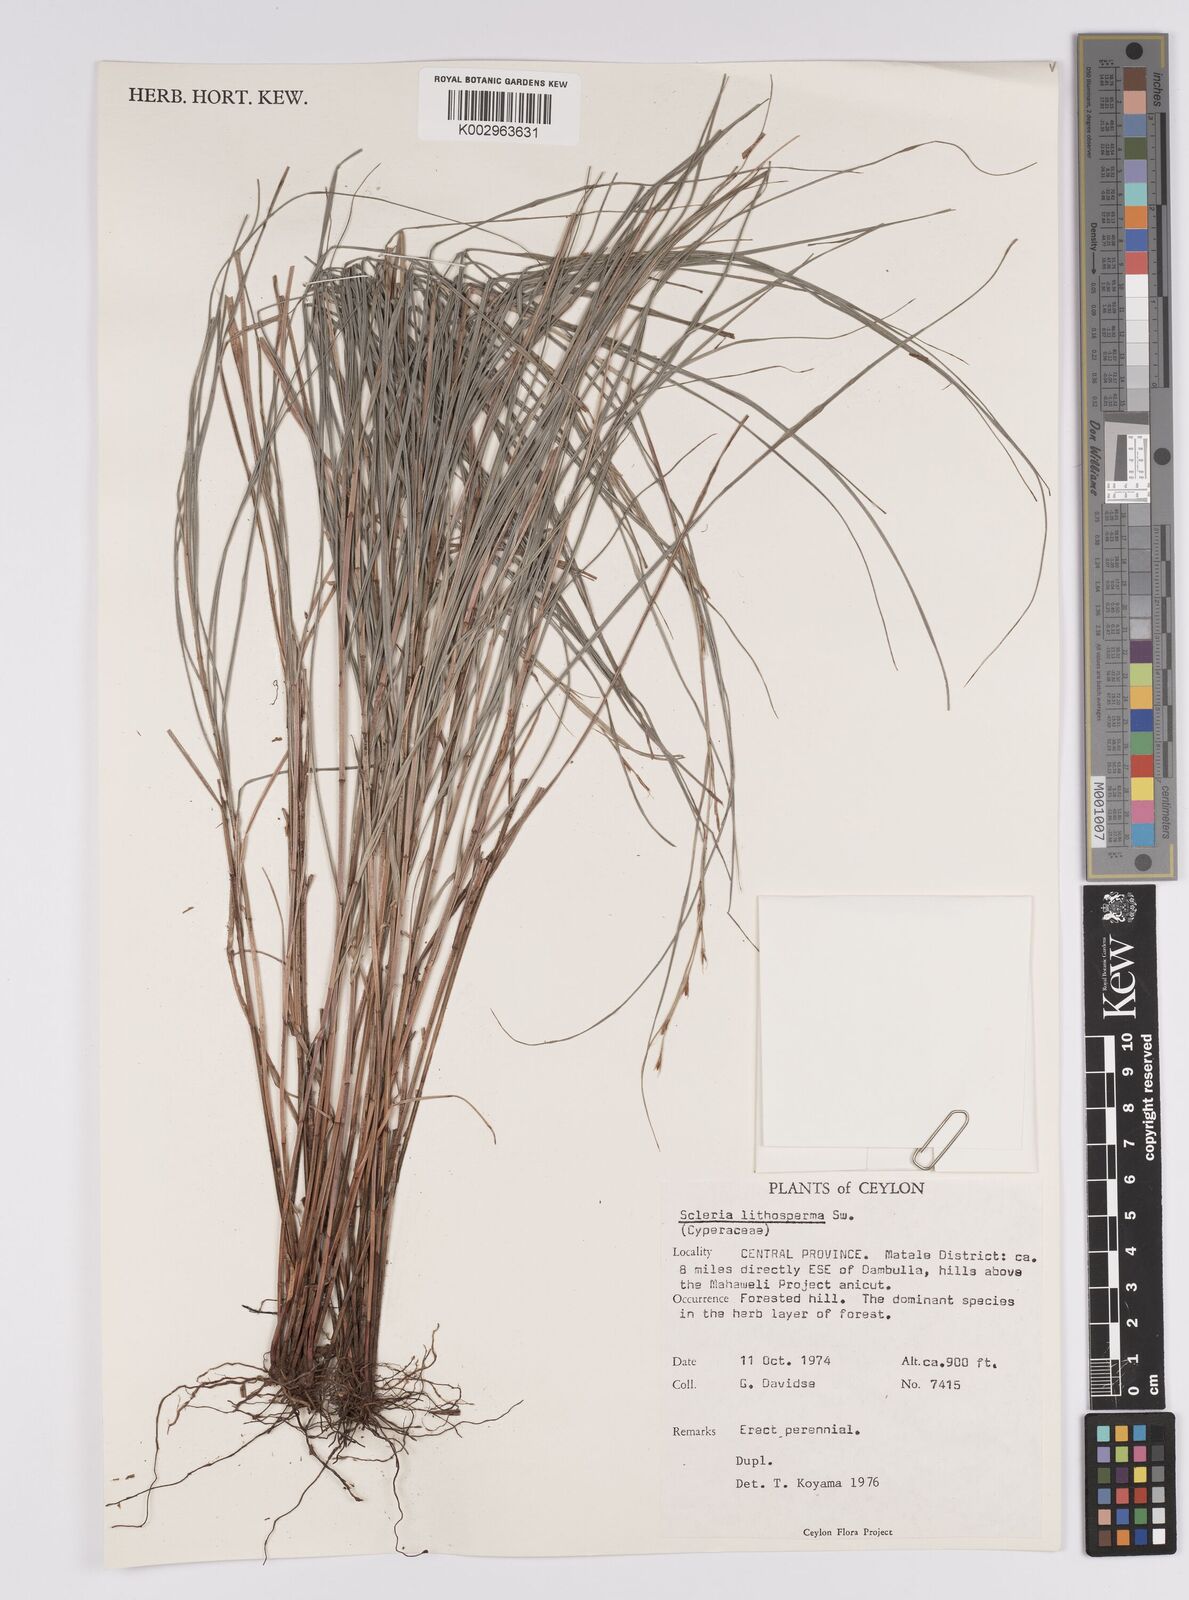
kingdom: Plantae
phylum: Tracheophyta
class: Liliopsida
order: Poales
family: Cyperaceae
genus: Scleria
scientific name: Scleria lithosperma
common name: Florida keys nut-rush
